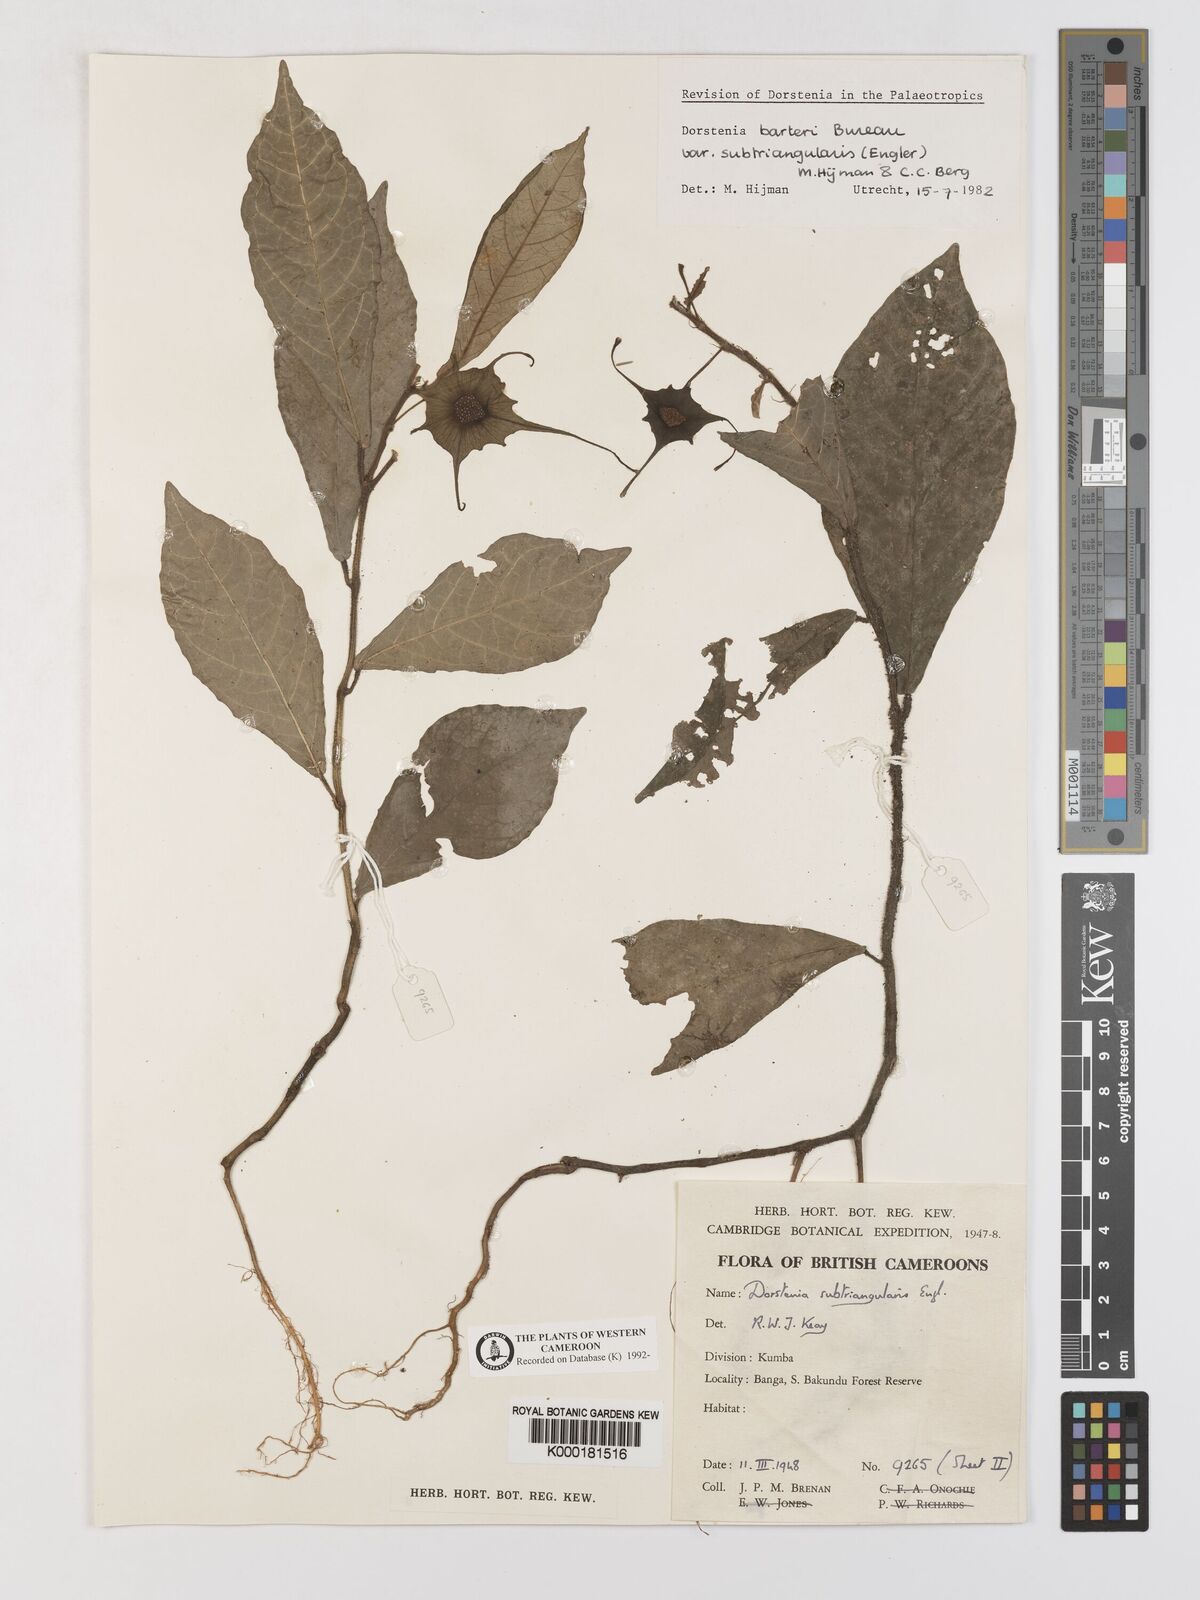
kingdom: Plantae
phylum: Tracheophyta
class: Magnoliopsida
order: Rosales
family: Moraceae
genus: Dorstenia
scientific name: Dorstenia barteri
